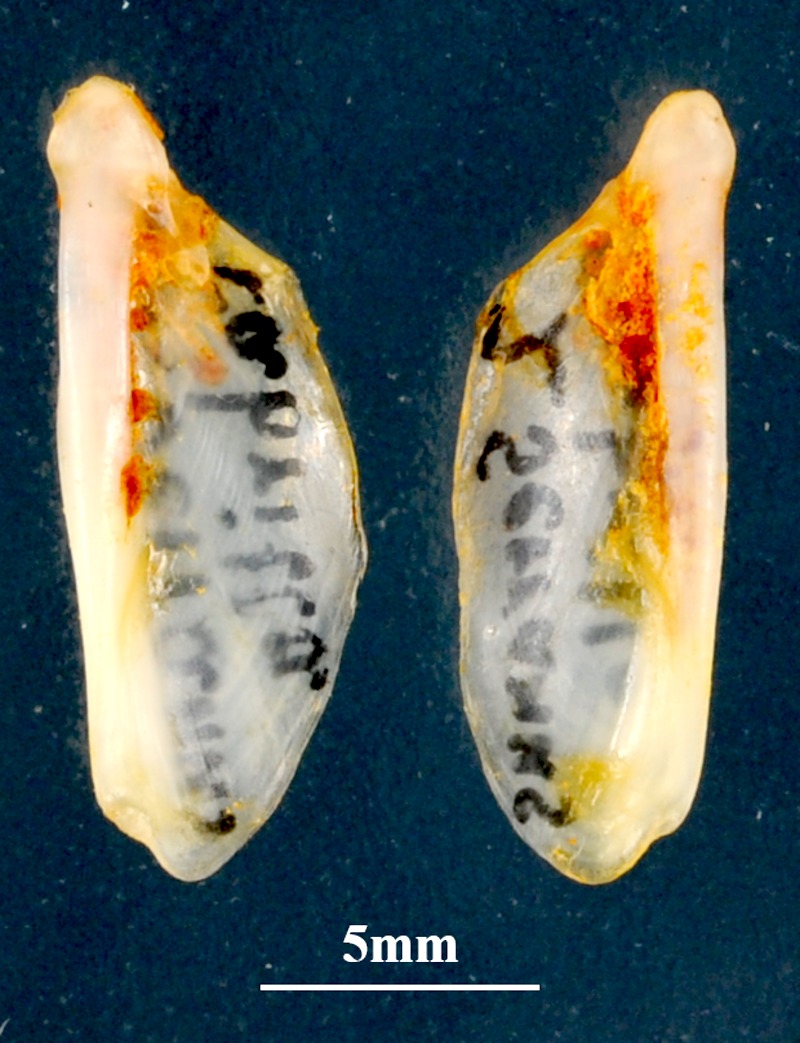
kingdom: Animalia
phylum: Chordata
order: Perciformes
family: Serranidae
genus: Serranus
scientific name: Serranus cabrilla
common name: Comber
